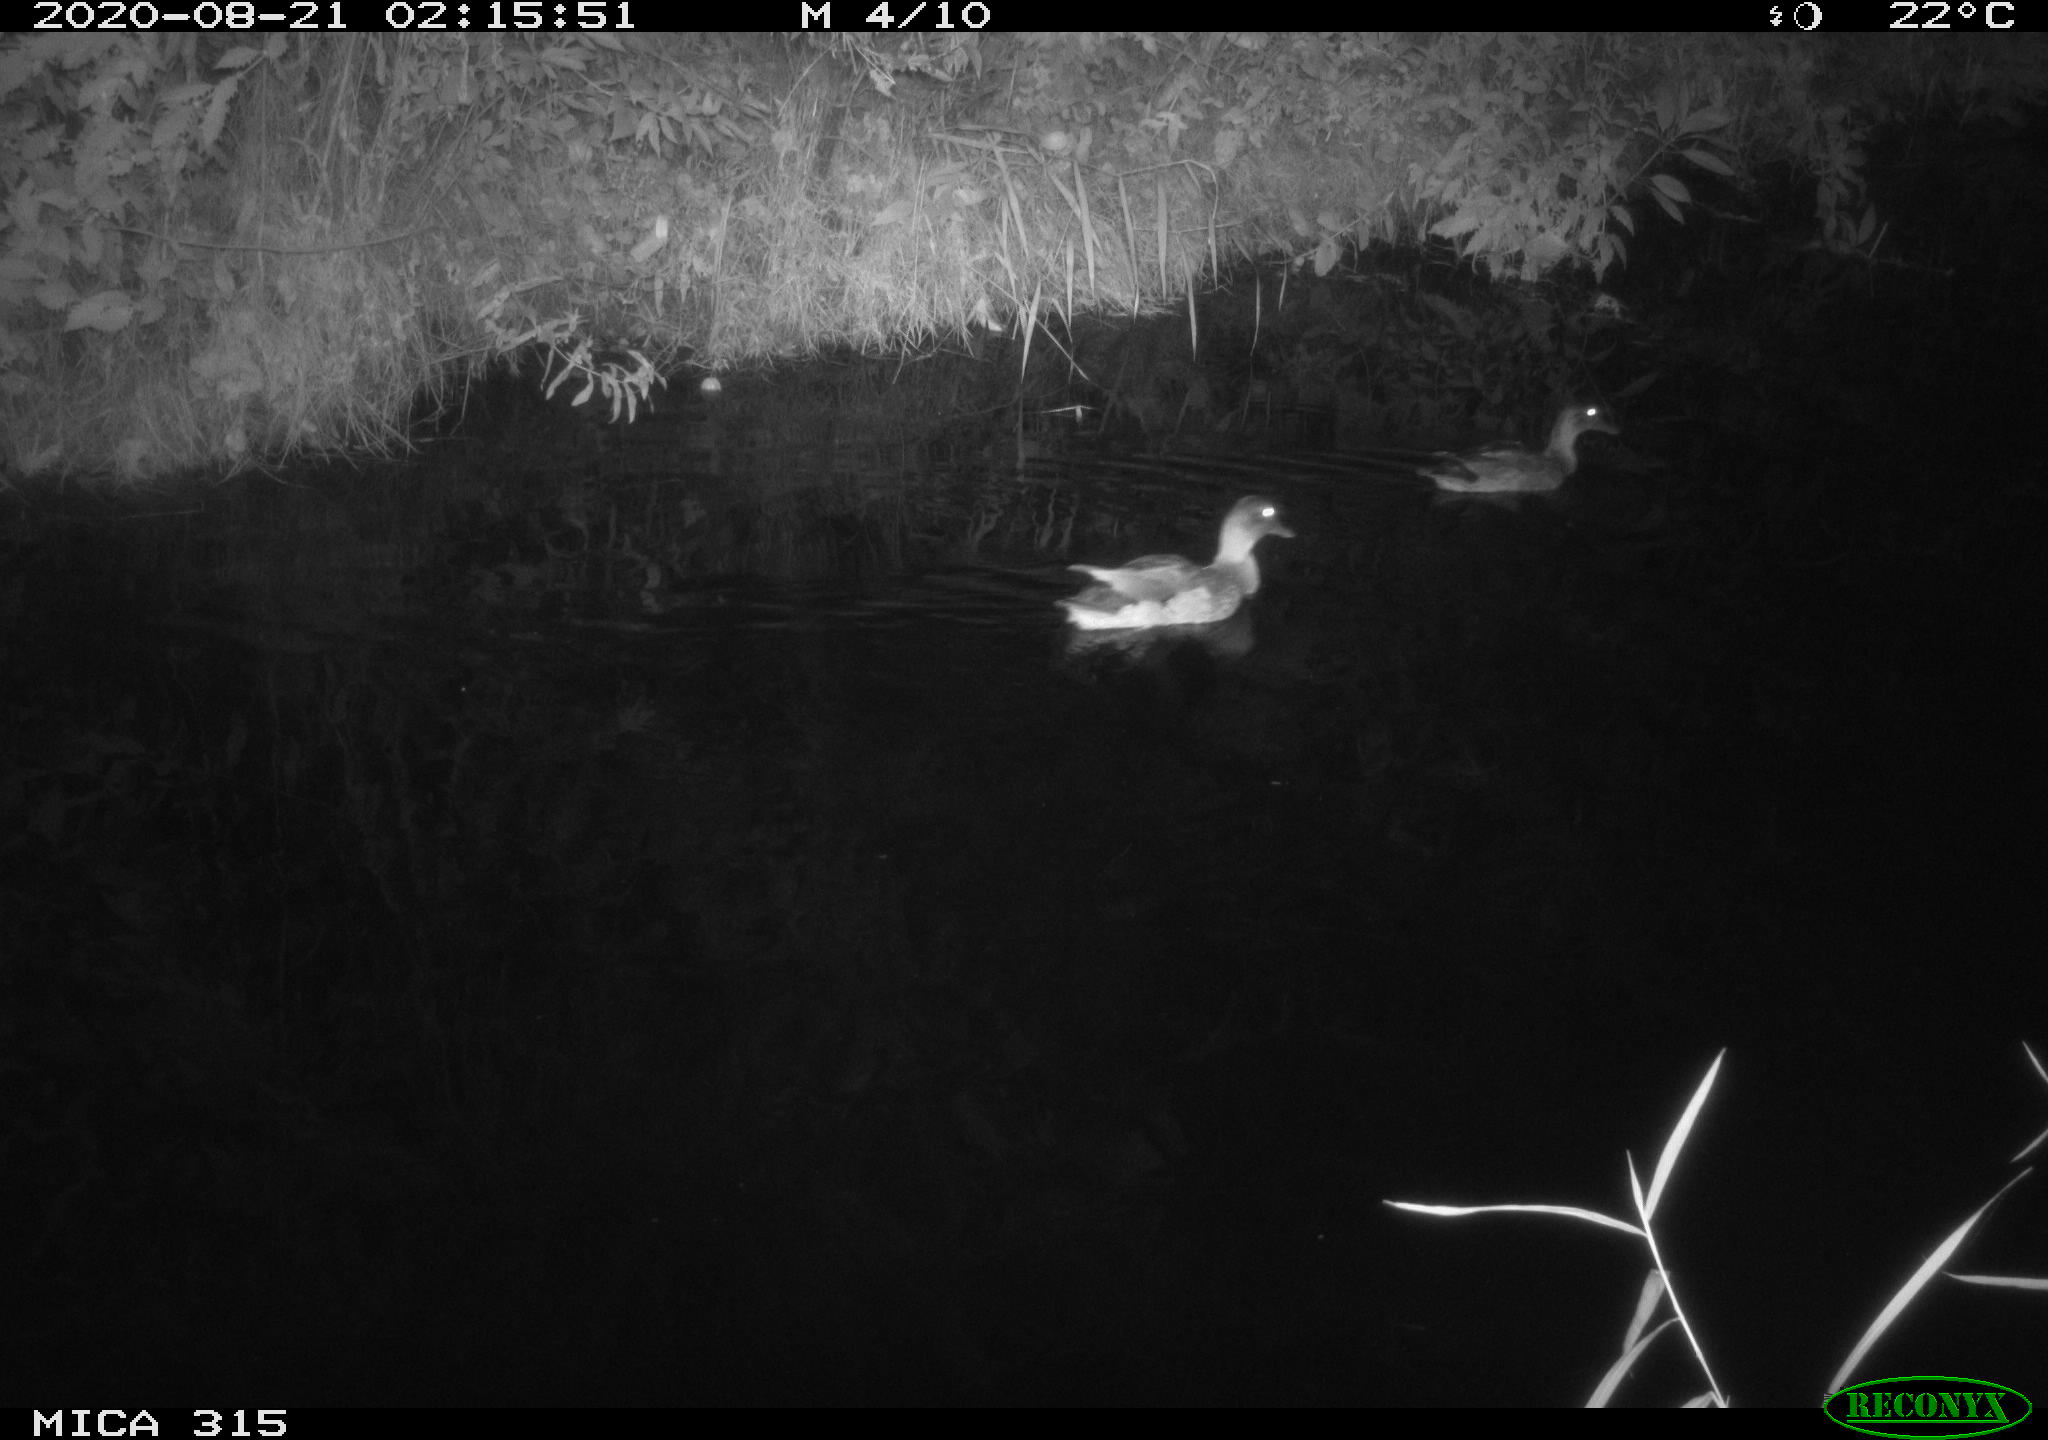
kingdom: Animalia
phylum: Chordata
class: Aves
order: Anseriformes
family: Anatidae
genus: Anas
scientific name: Anas platyrhynchos
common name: Mallard
